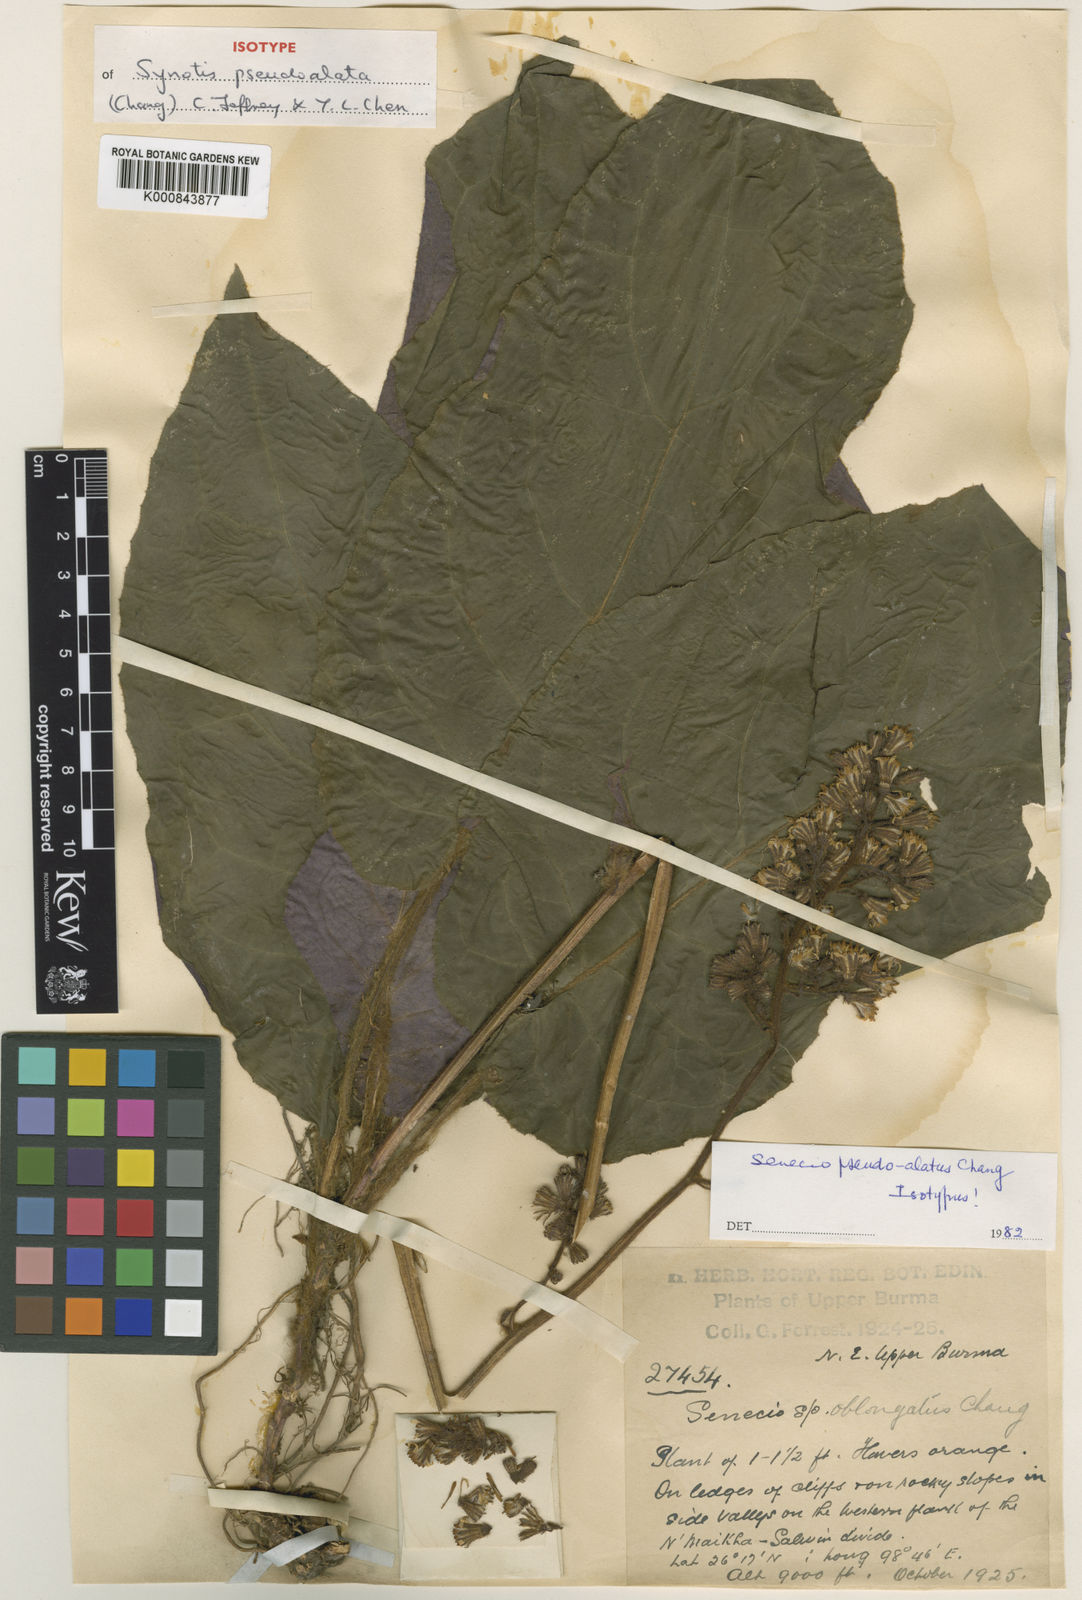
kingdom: Plantae
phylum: Tracheophyta
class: Magnoliopsida
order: Asterales
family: Asteraceae
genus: Synotis
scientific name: Synotis pseudoalata
